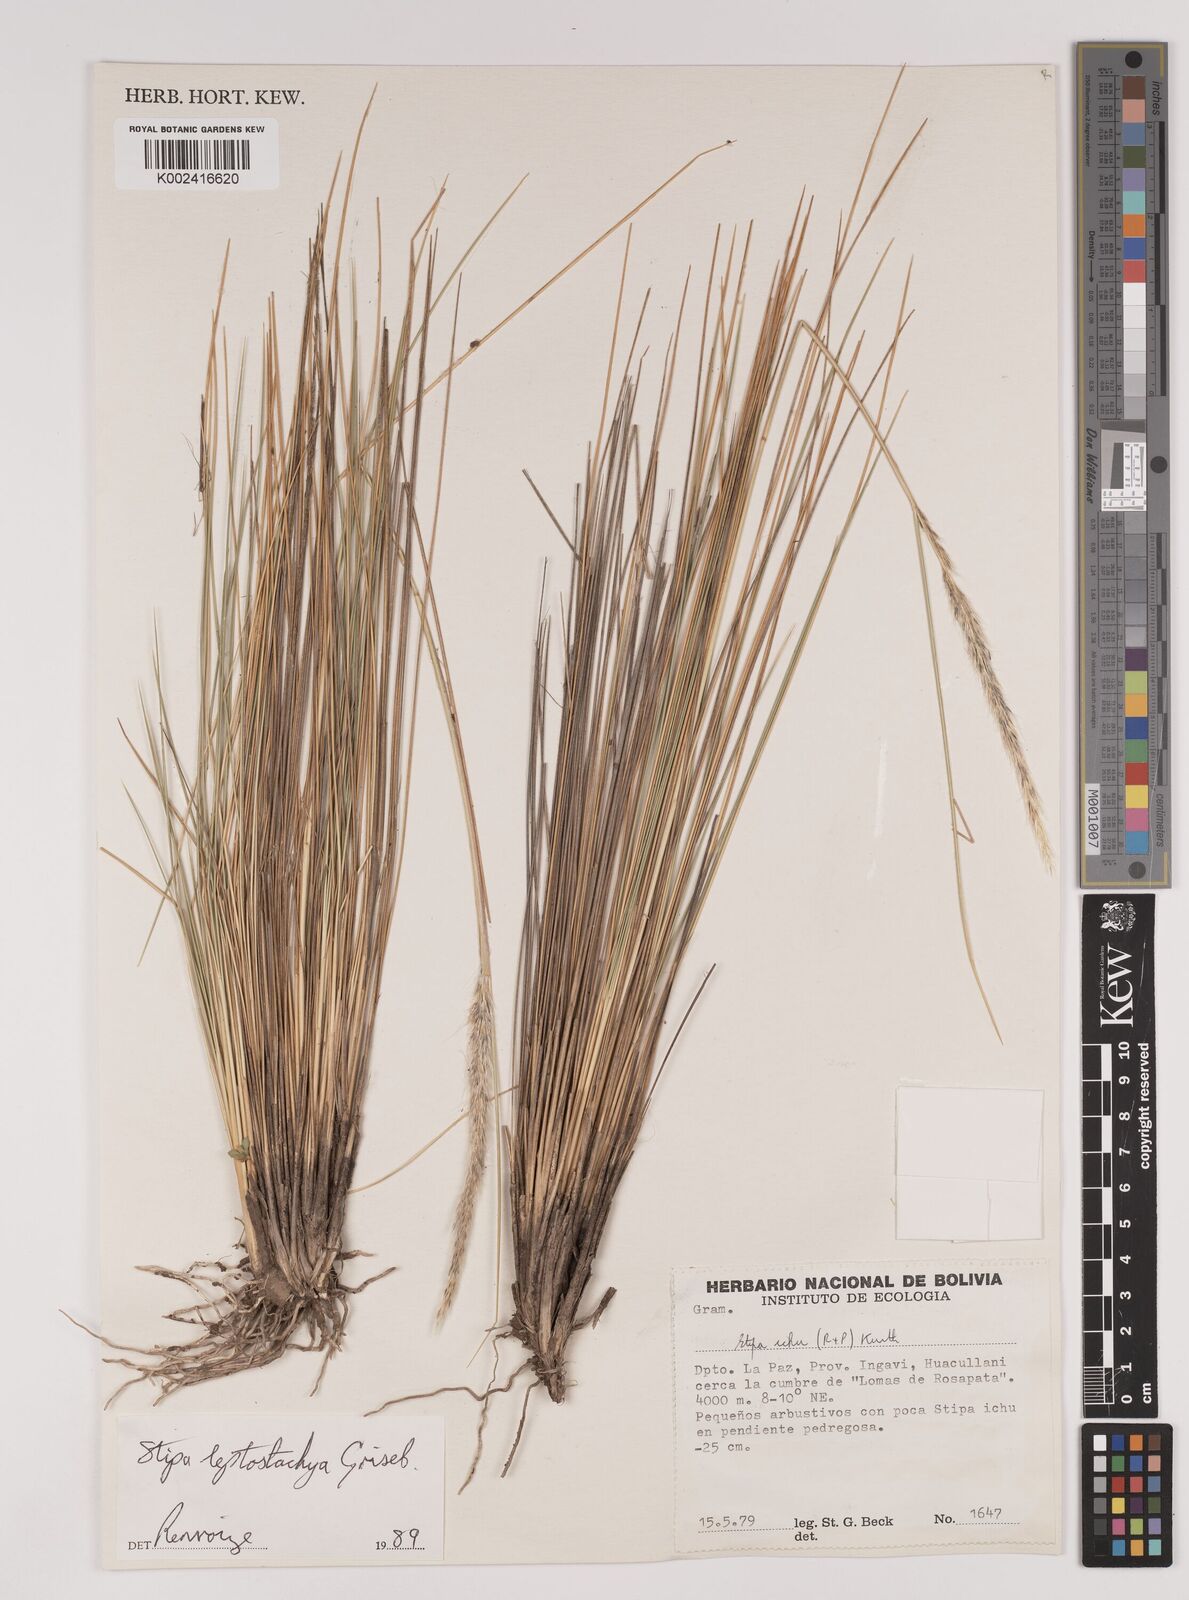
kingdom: Plantae
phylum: Tracheophyta
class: Liliopsida
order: Poales
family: Poaceae
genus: Jarava
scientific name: Jarava leptostachya
